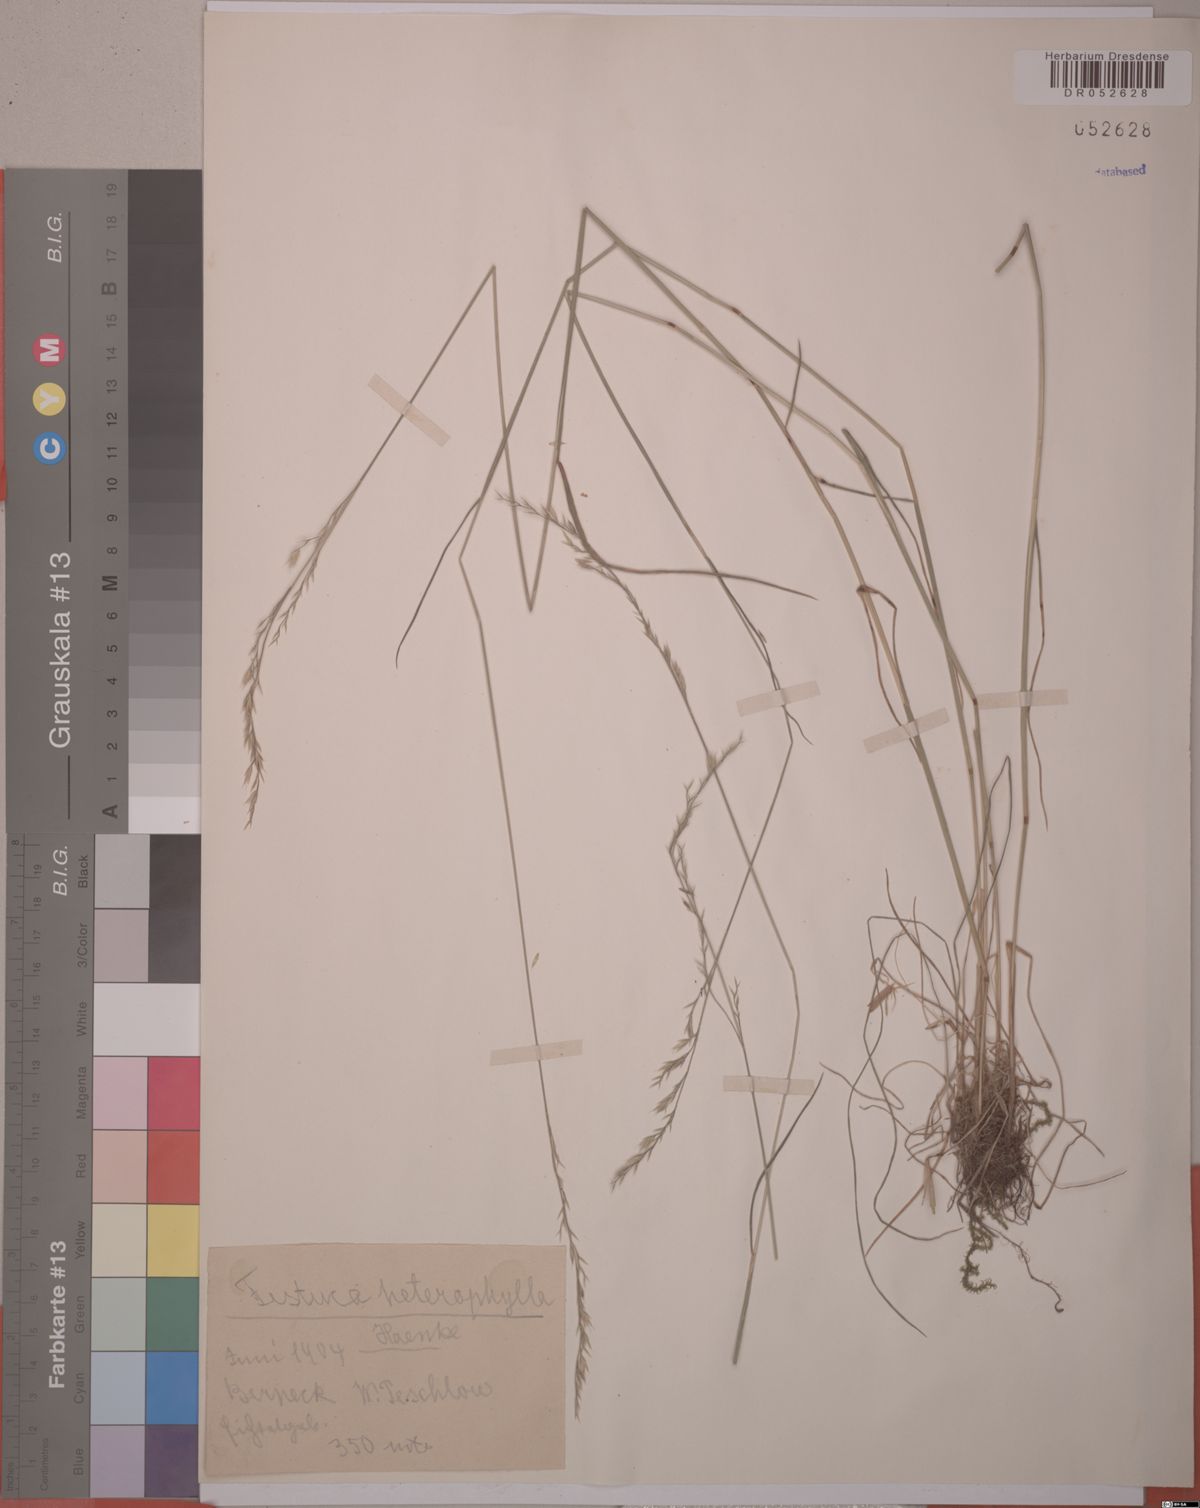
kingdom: Plantae
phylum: Tracheophyta
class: Liliopsida
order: Poales
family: Poaceae
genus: Festuca
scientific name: Festuca heterophylla
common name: Various-leaved fescue
